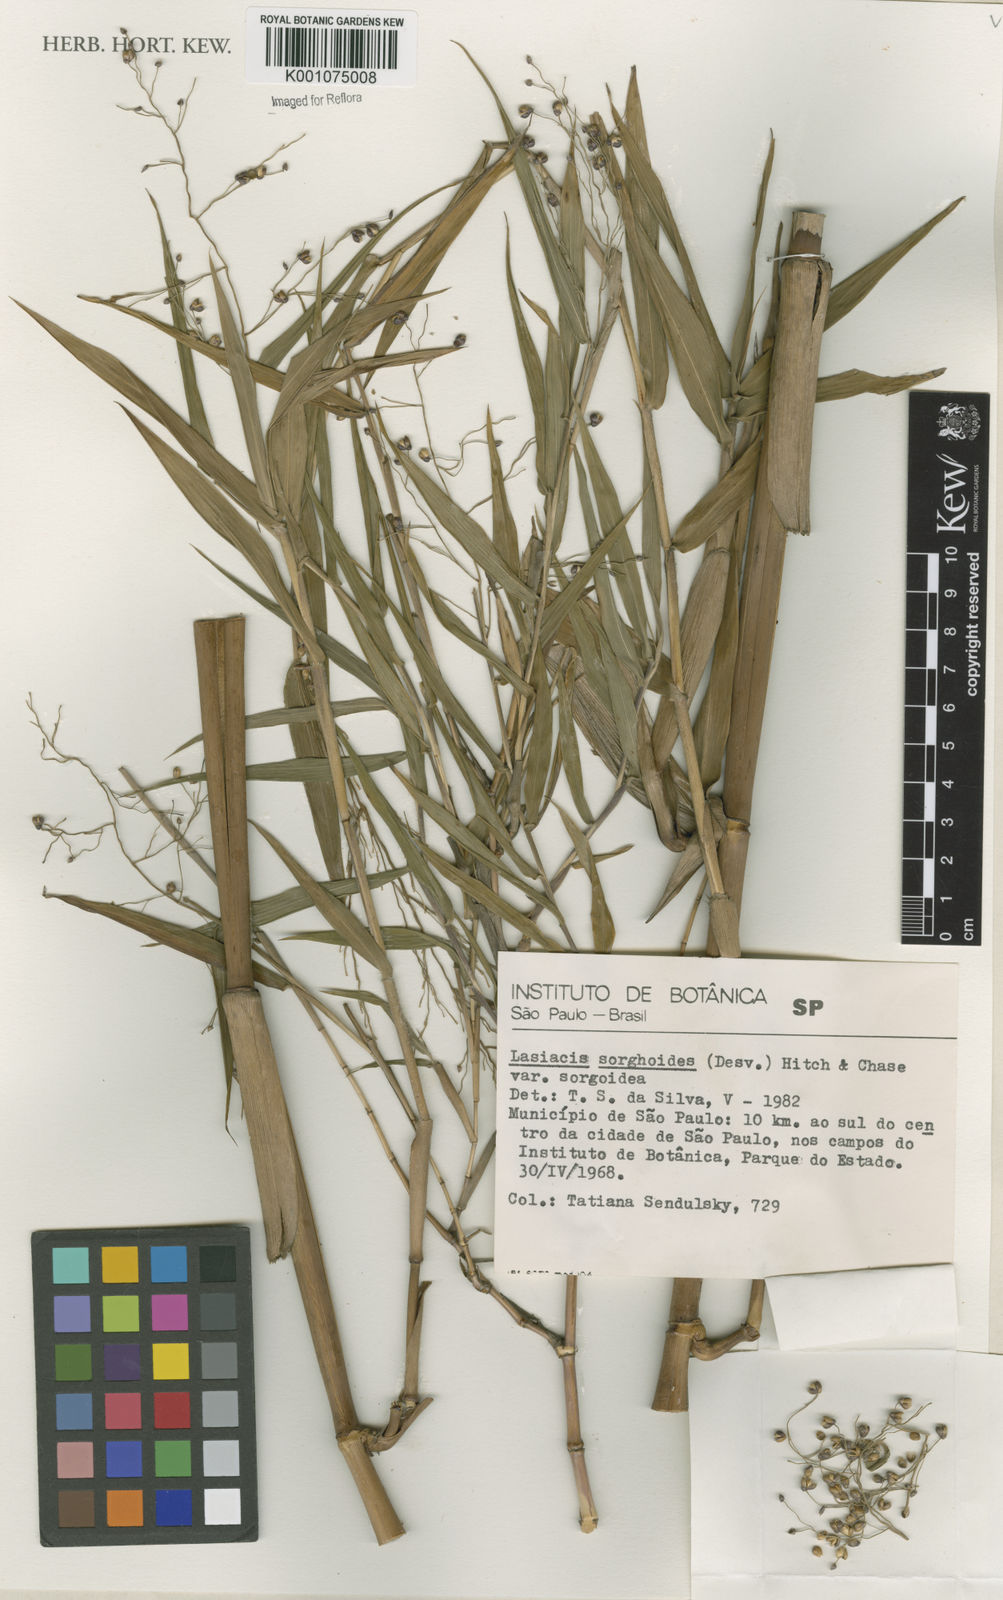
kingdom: Plantae
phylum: Tracheophyta
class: Liliopsida
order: Poales
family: Poaceae
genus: Lasiacis
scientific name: Lasiacis maculata
